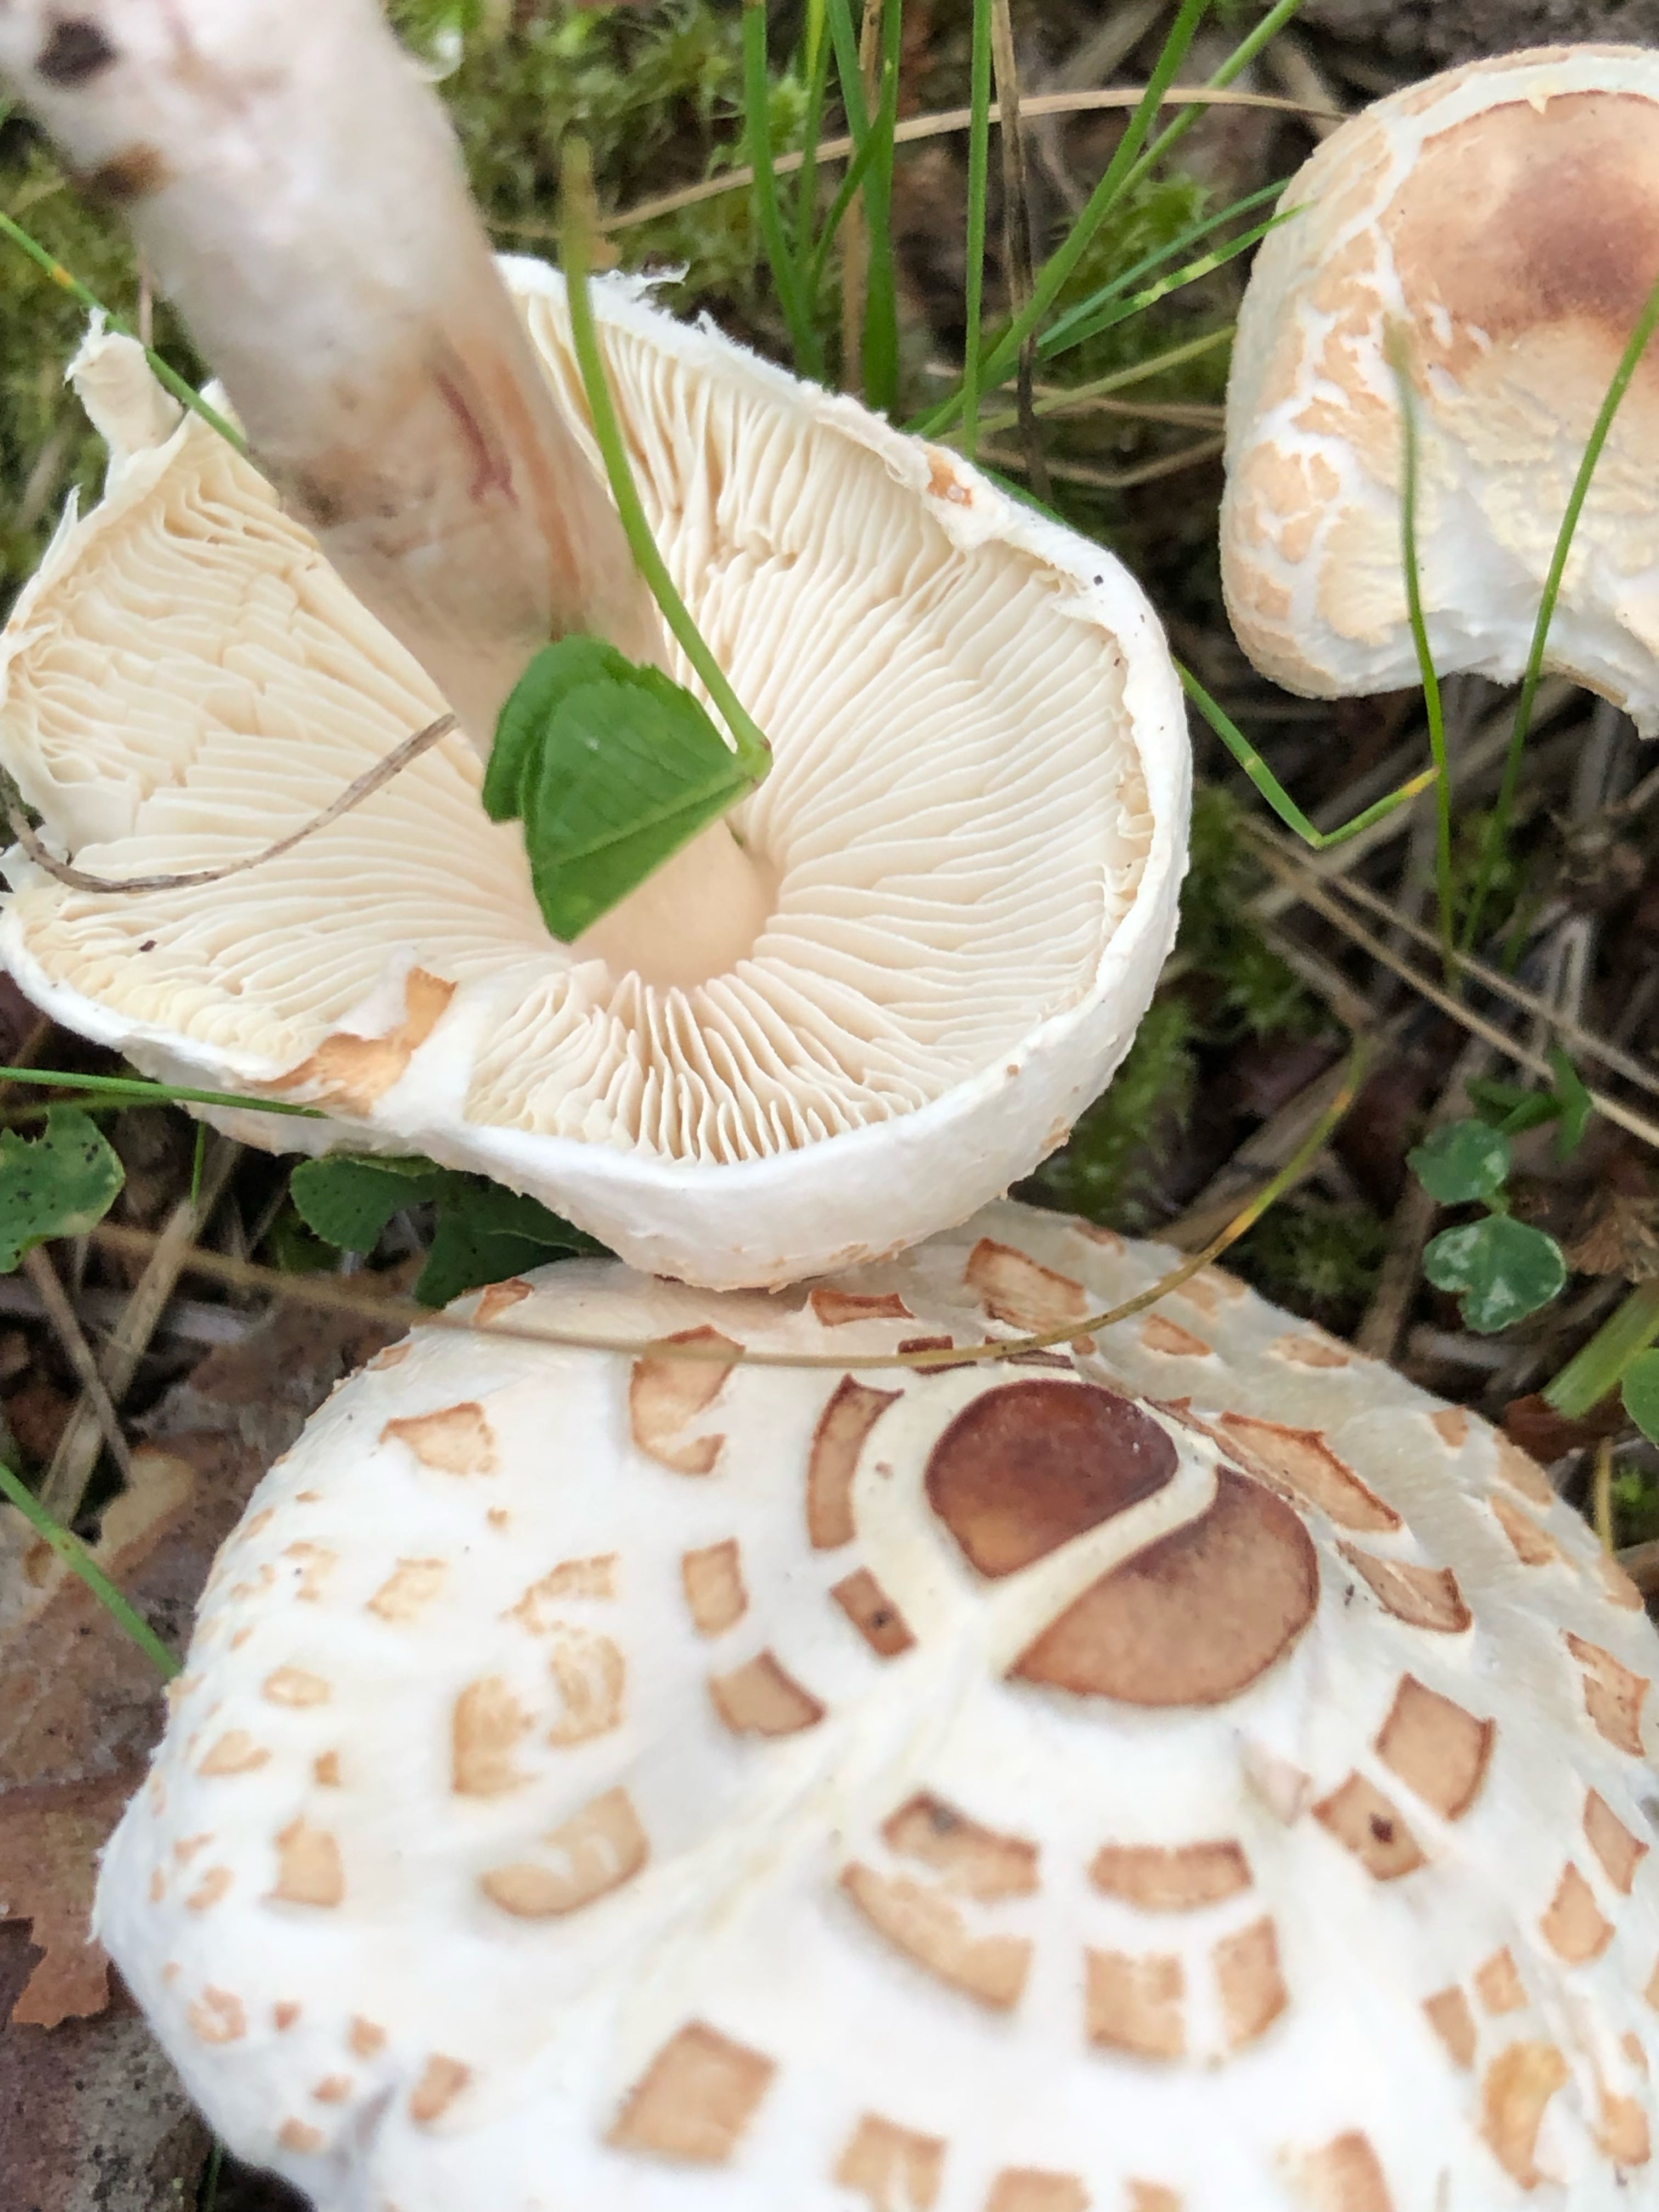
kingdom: Fungi
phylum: Basidiomycota
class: Agaricomycetes
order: Agaricales
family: Agaricaceae
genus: Lepiota
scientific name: Lepiota cristata
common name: stinkende parasolhat
